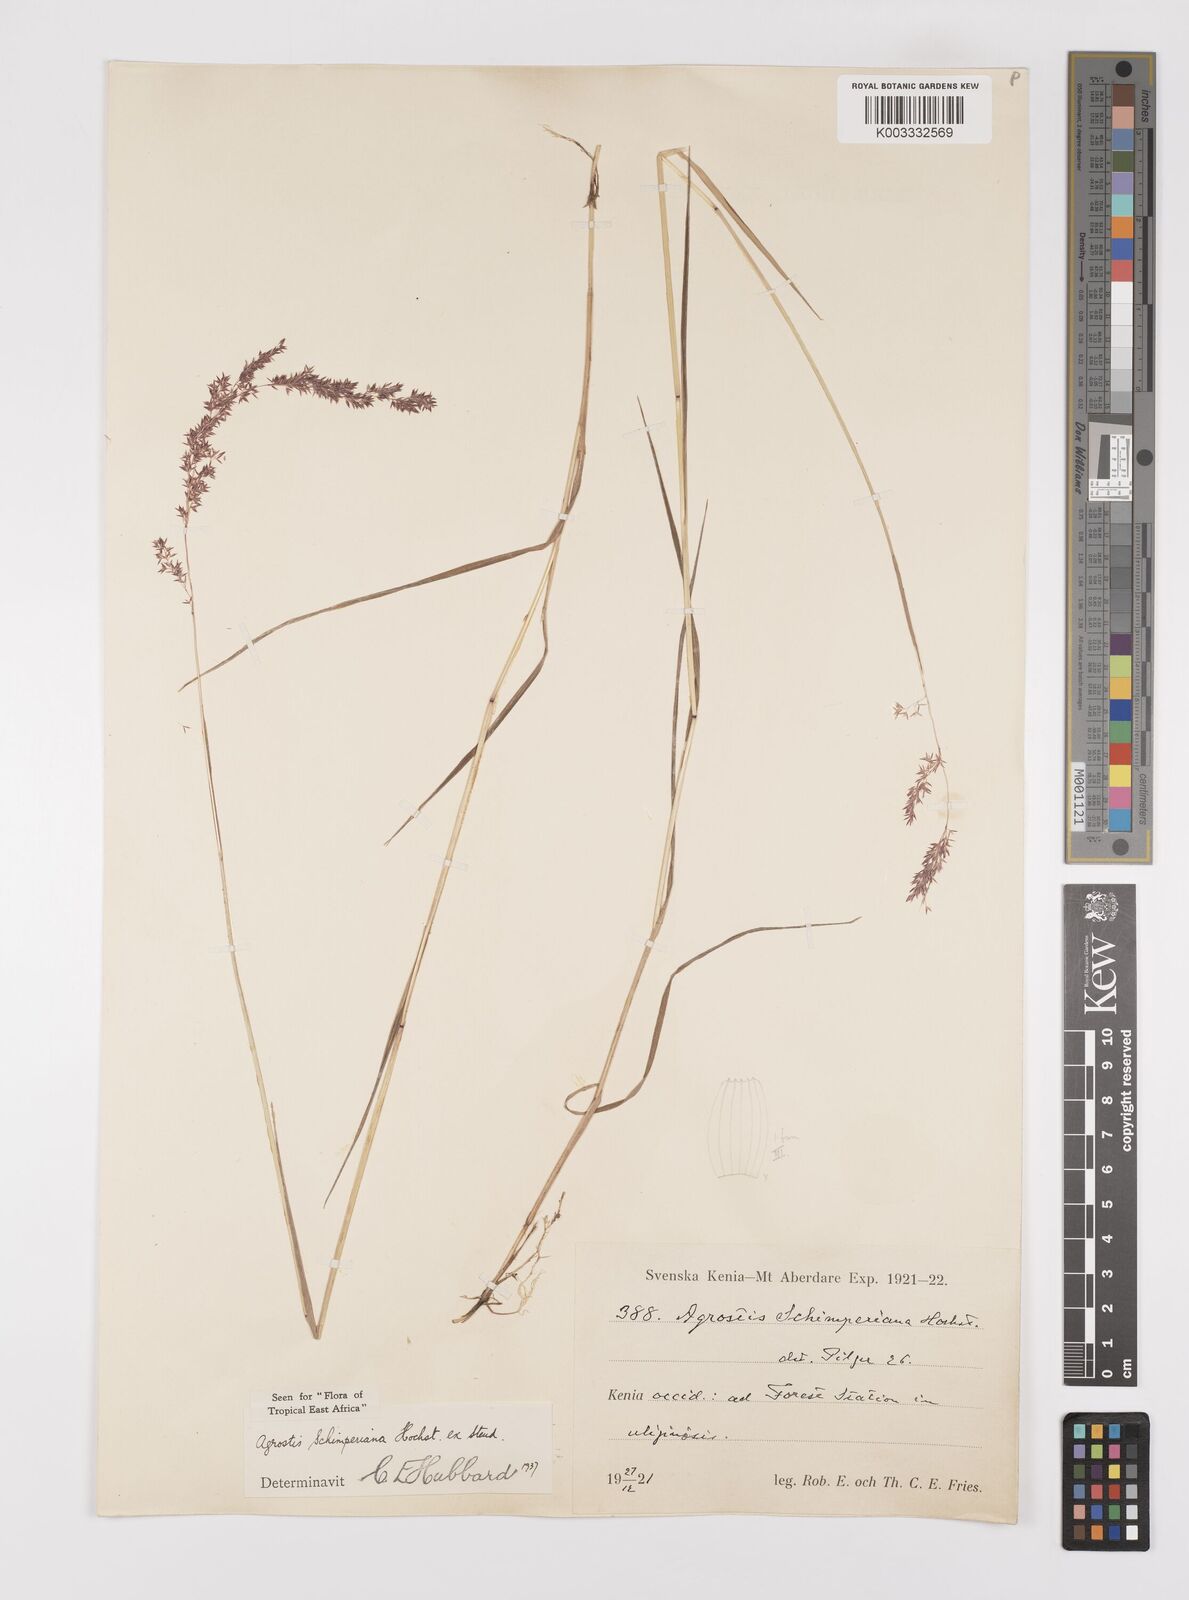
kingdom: Plantae
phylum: Tracheophyta
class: Liliopsida
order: Poales
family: Poaceae
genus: Polypogon
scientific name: Polypogon schimperianus
